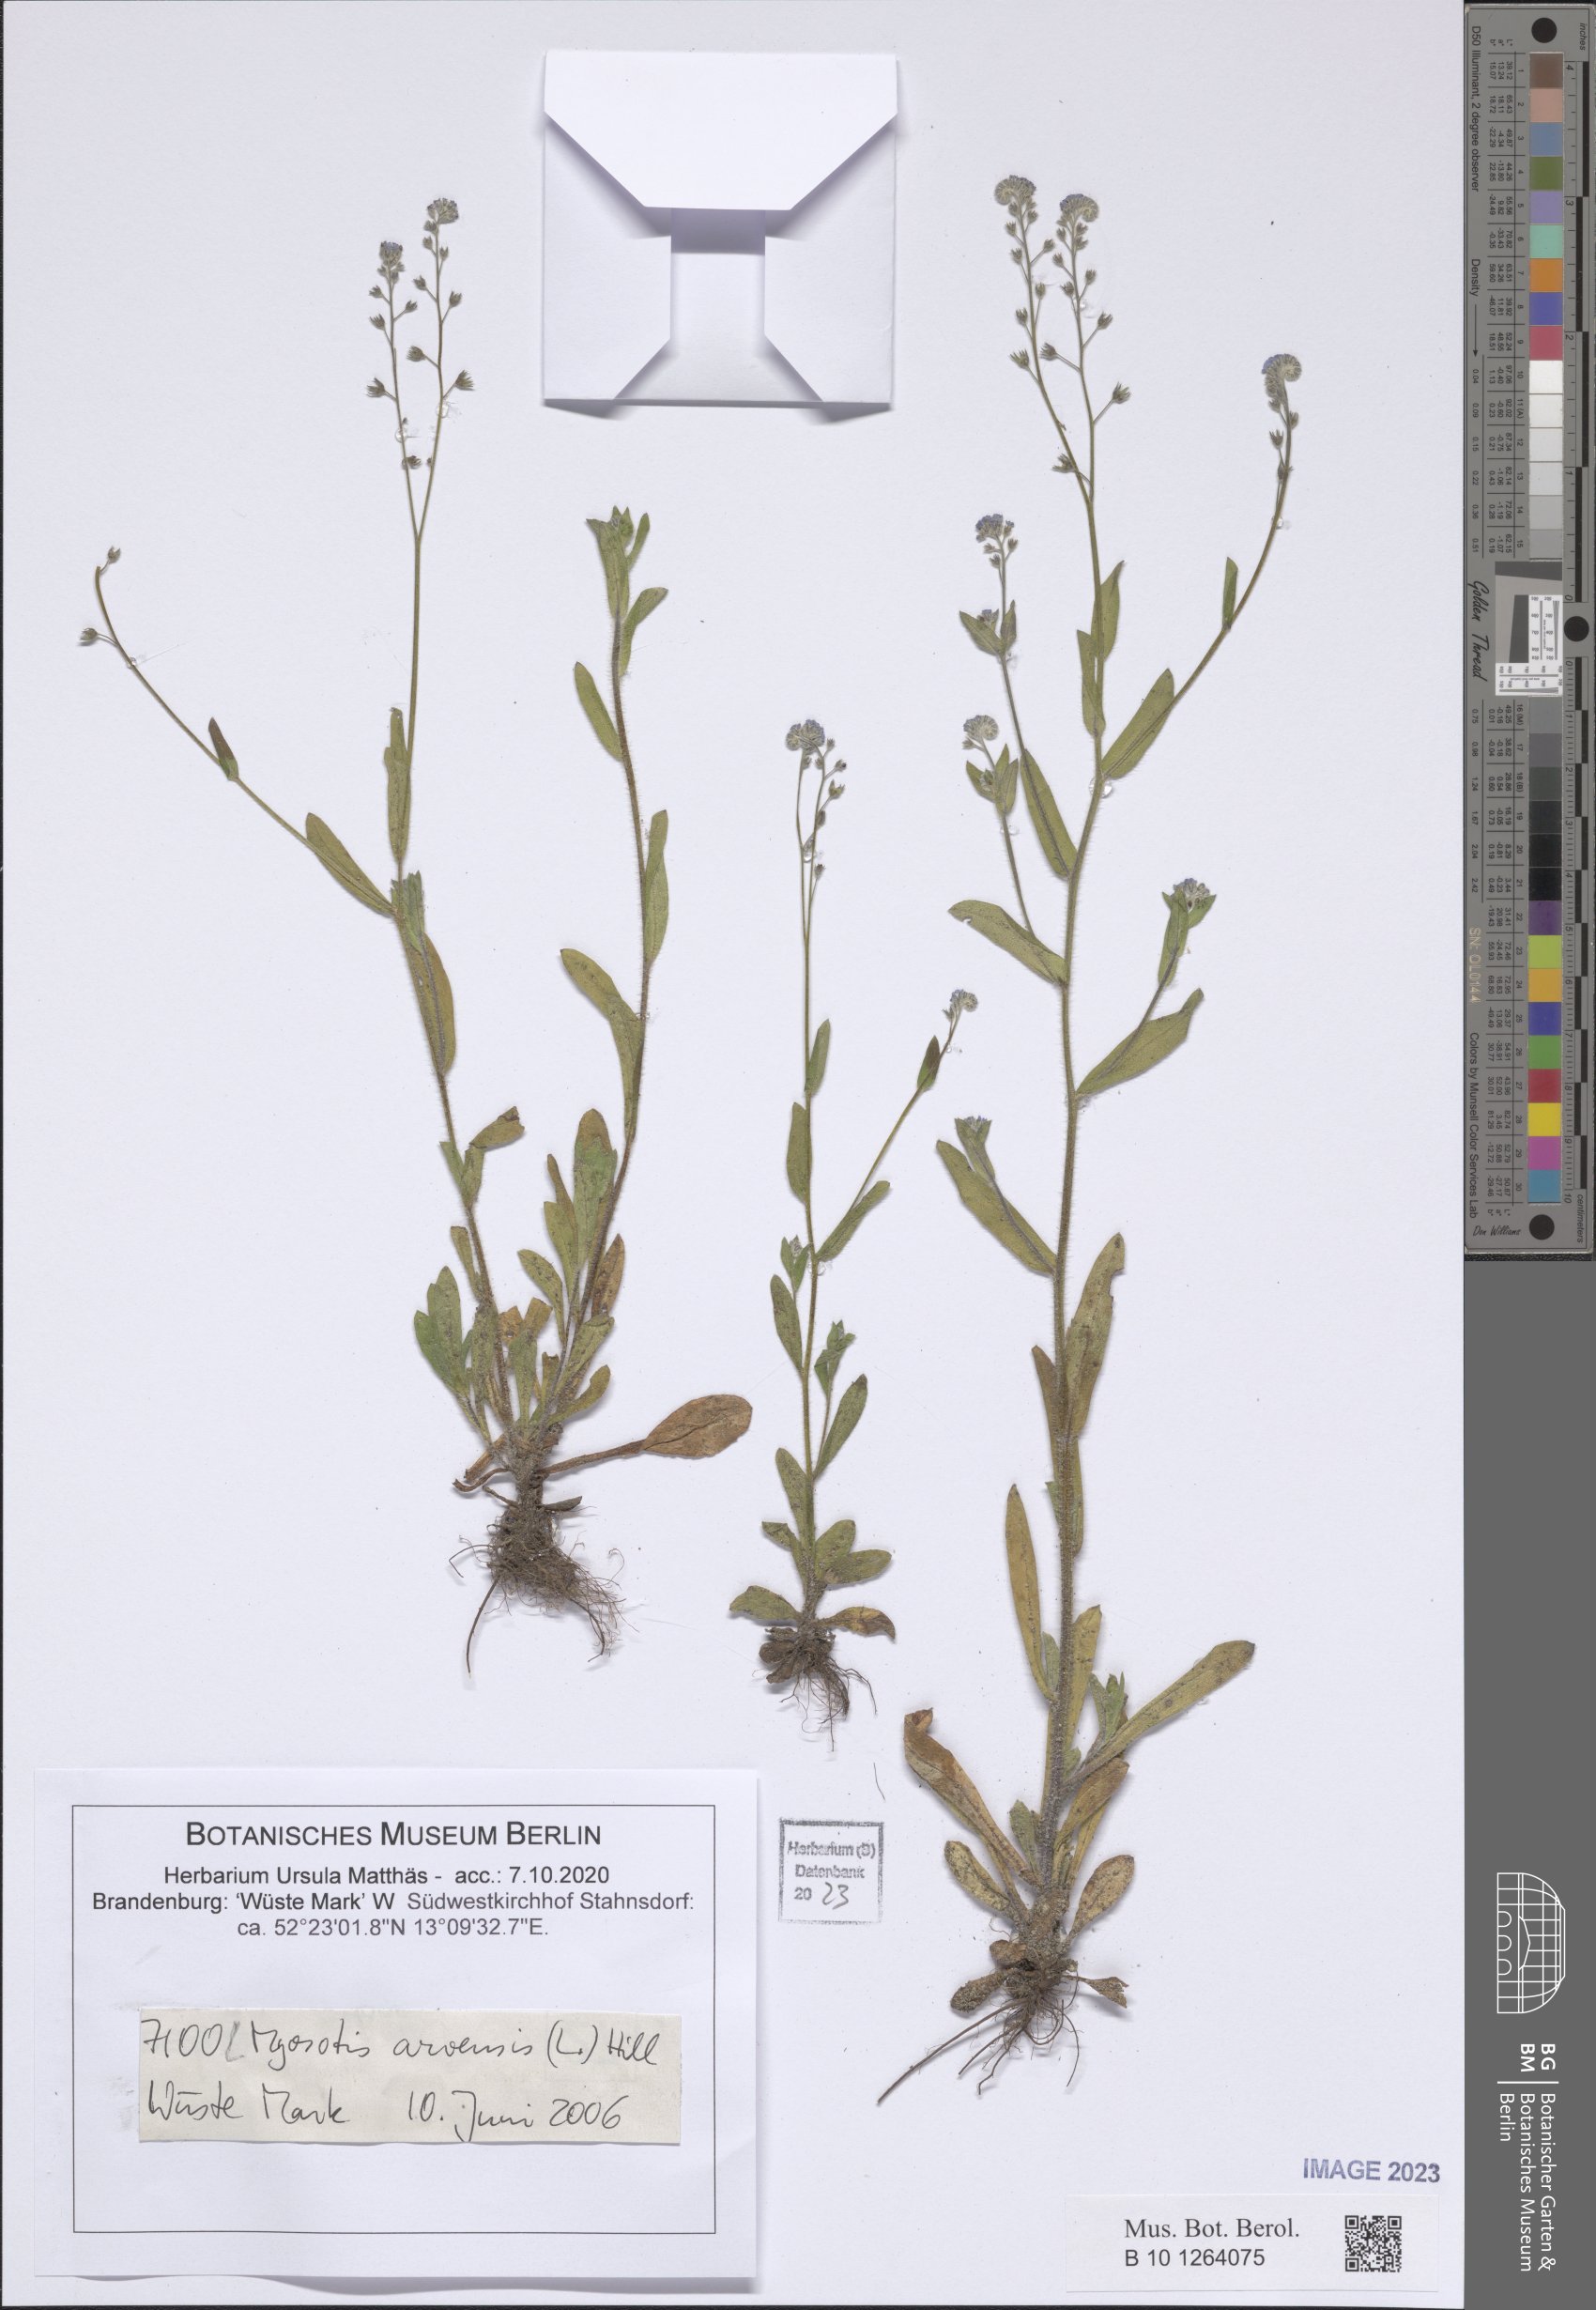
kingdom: Plantae
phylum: Tracheophyta
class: Magnoliopsida
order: Boraginales
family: Boraginaceae
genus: Myosotis
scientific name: Myosotis arvensis
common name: Field forget-me-not
